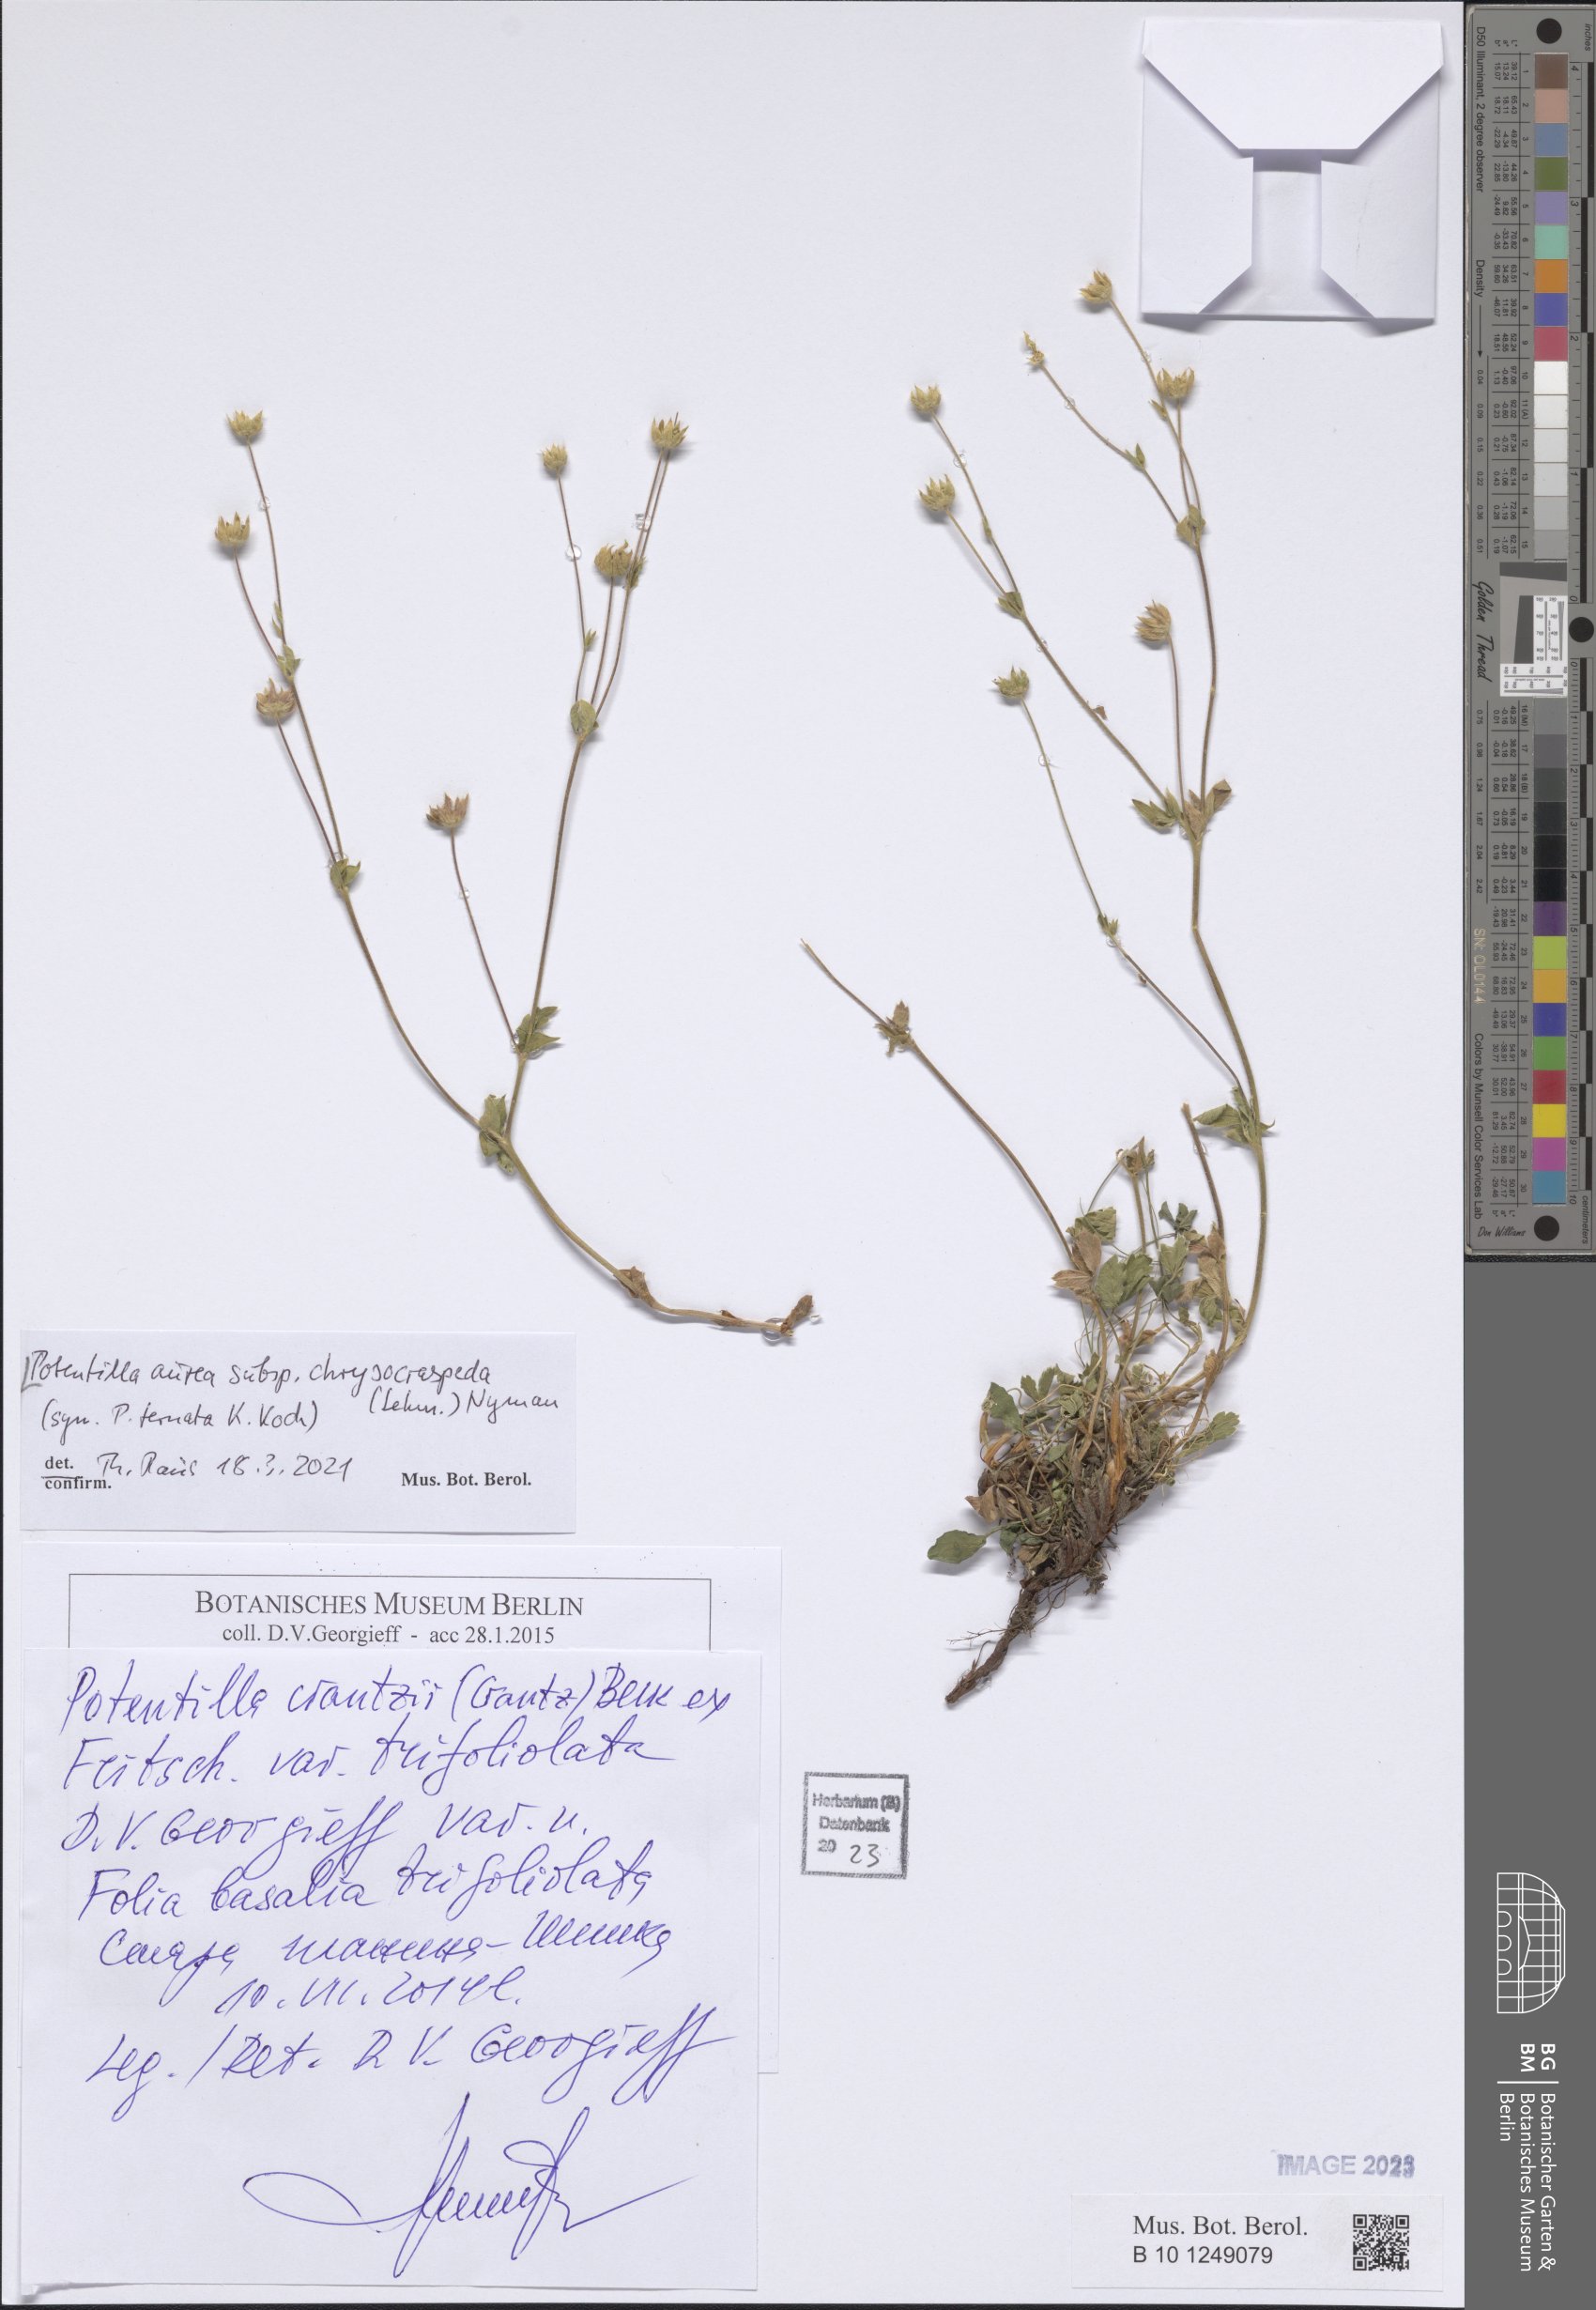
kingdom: Plantae
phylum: Tracheophyta
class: Magnoliopsida
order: Rosales
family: Rosaceae
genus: Potentilla
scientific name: Potentilla aurea
